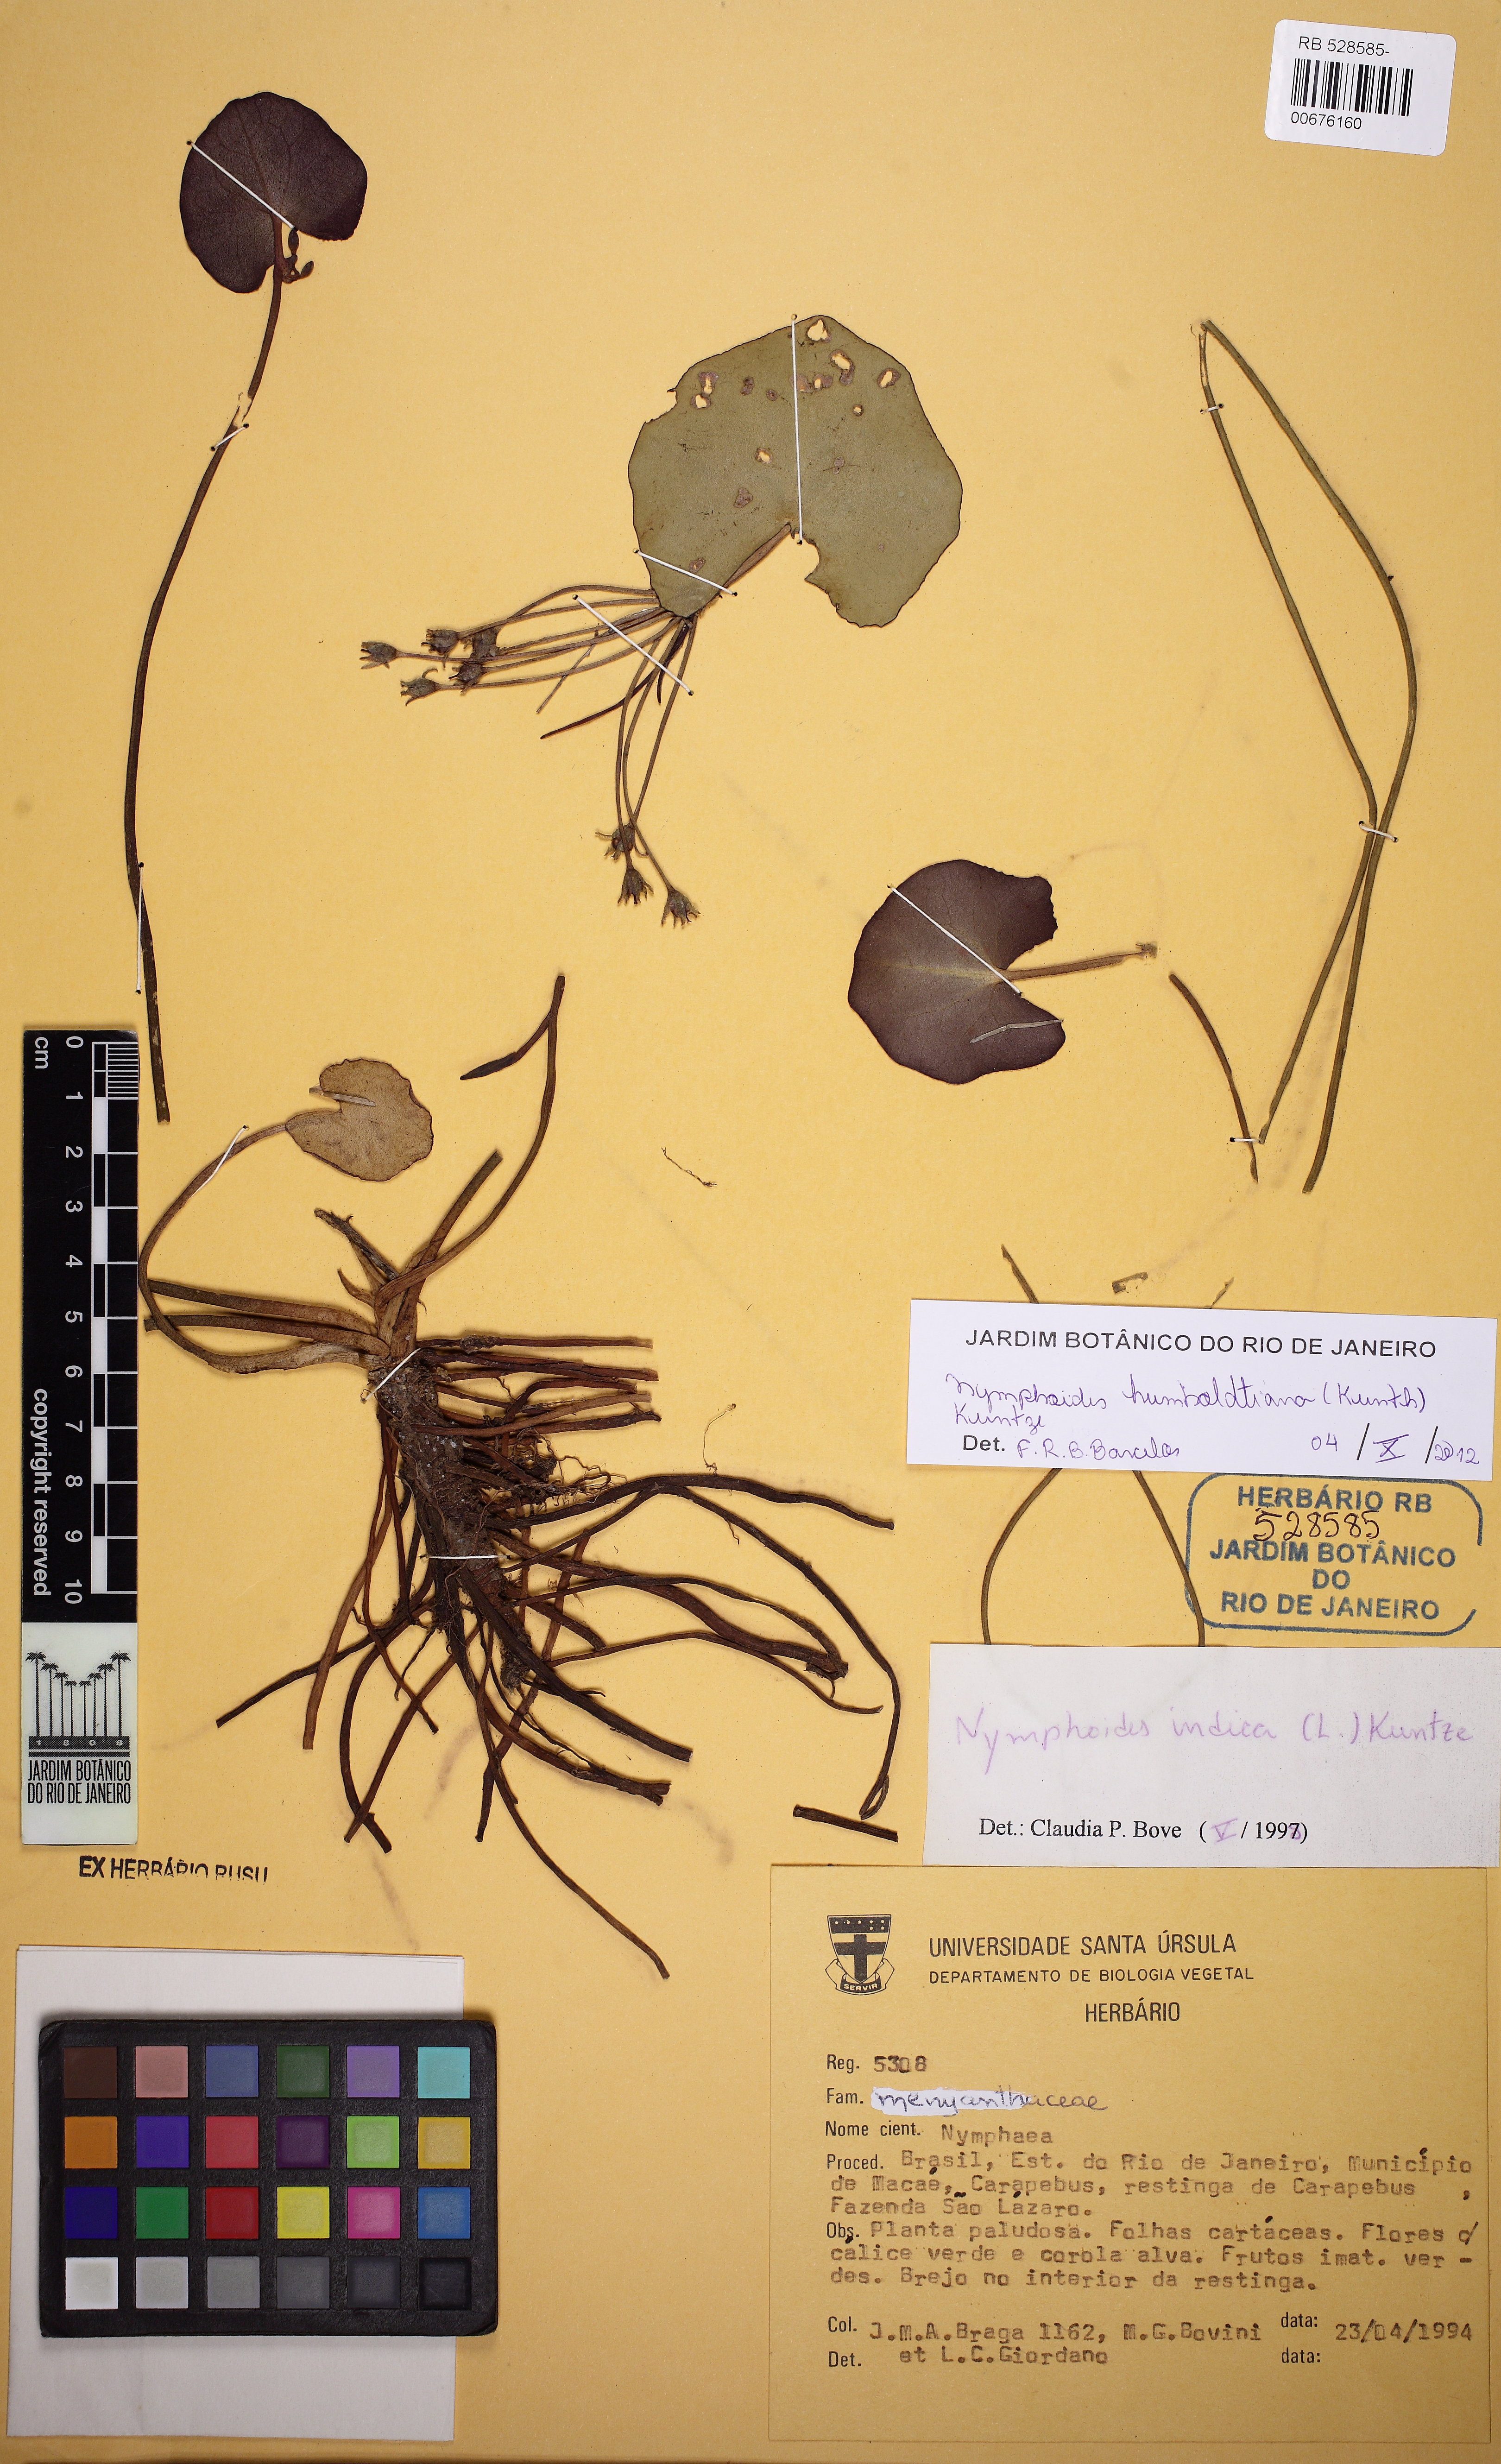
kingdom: Plantae
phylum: Tracheophyta
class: Magnoliopsida
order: Asterales
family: Menyanthaceae
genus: Nymphoides
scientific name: Nymphoides humboldtiana
